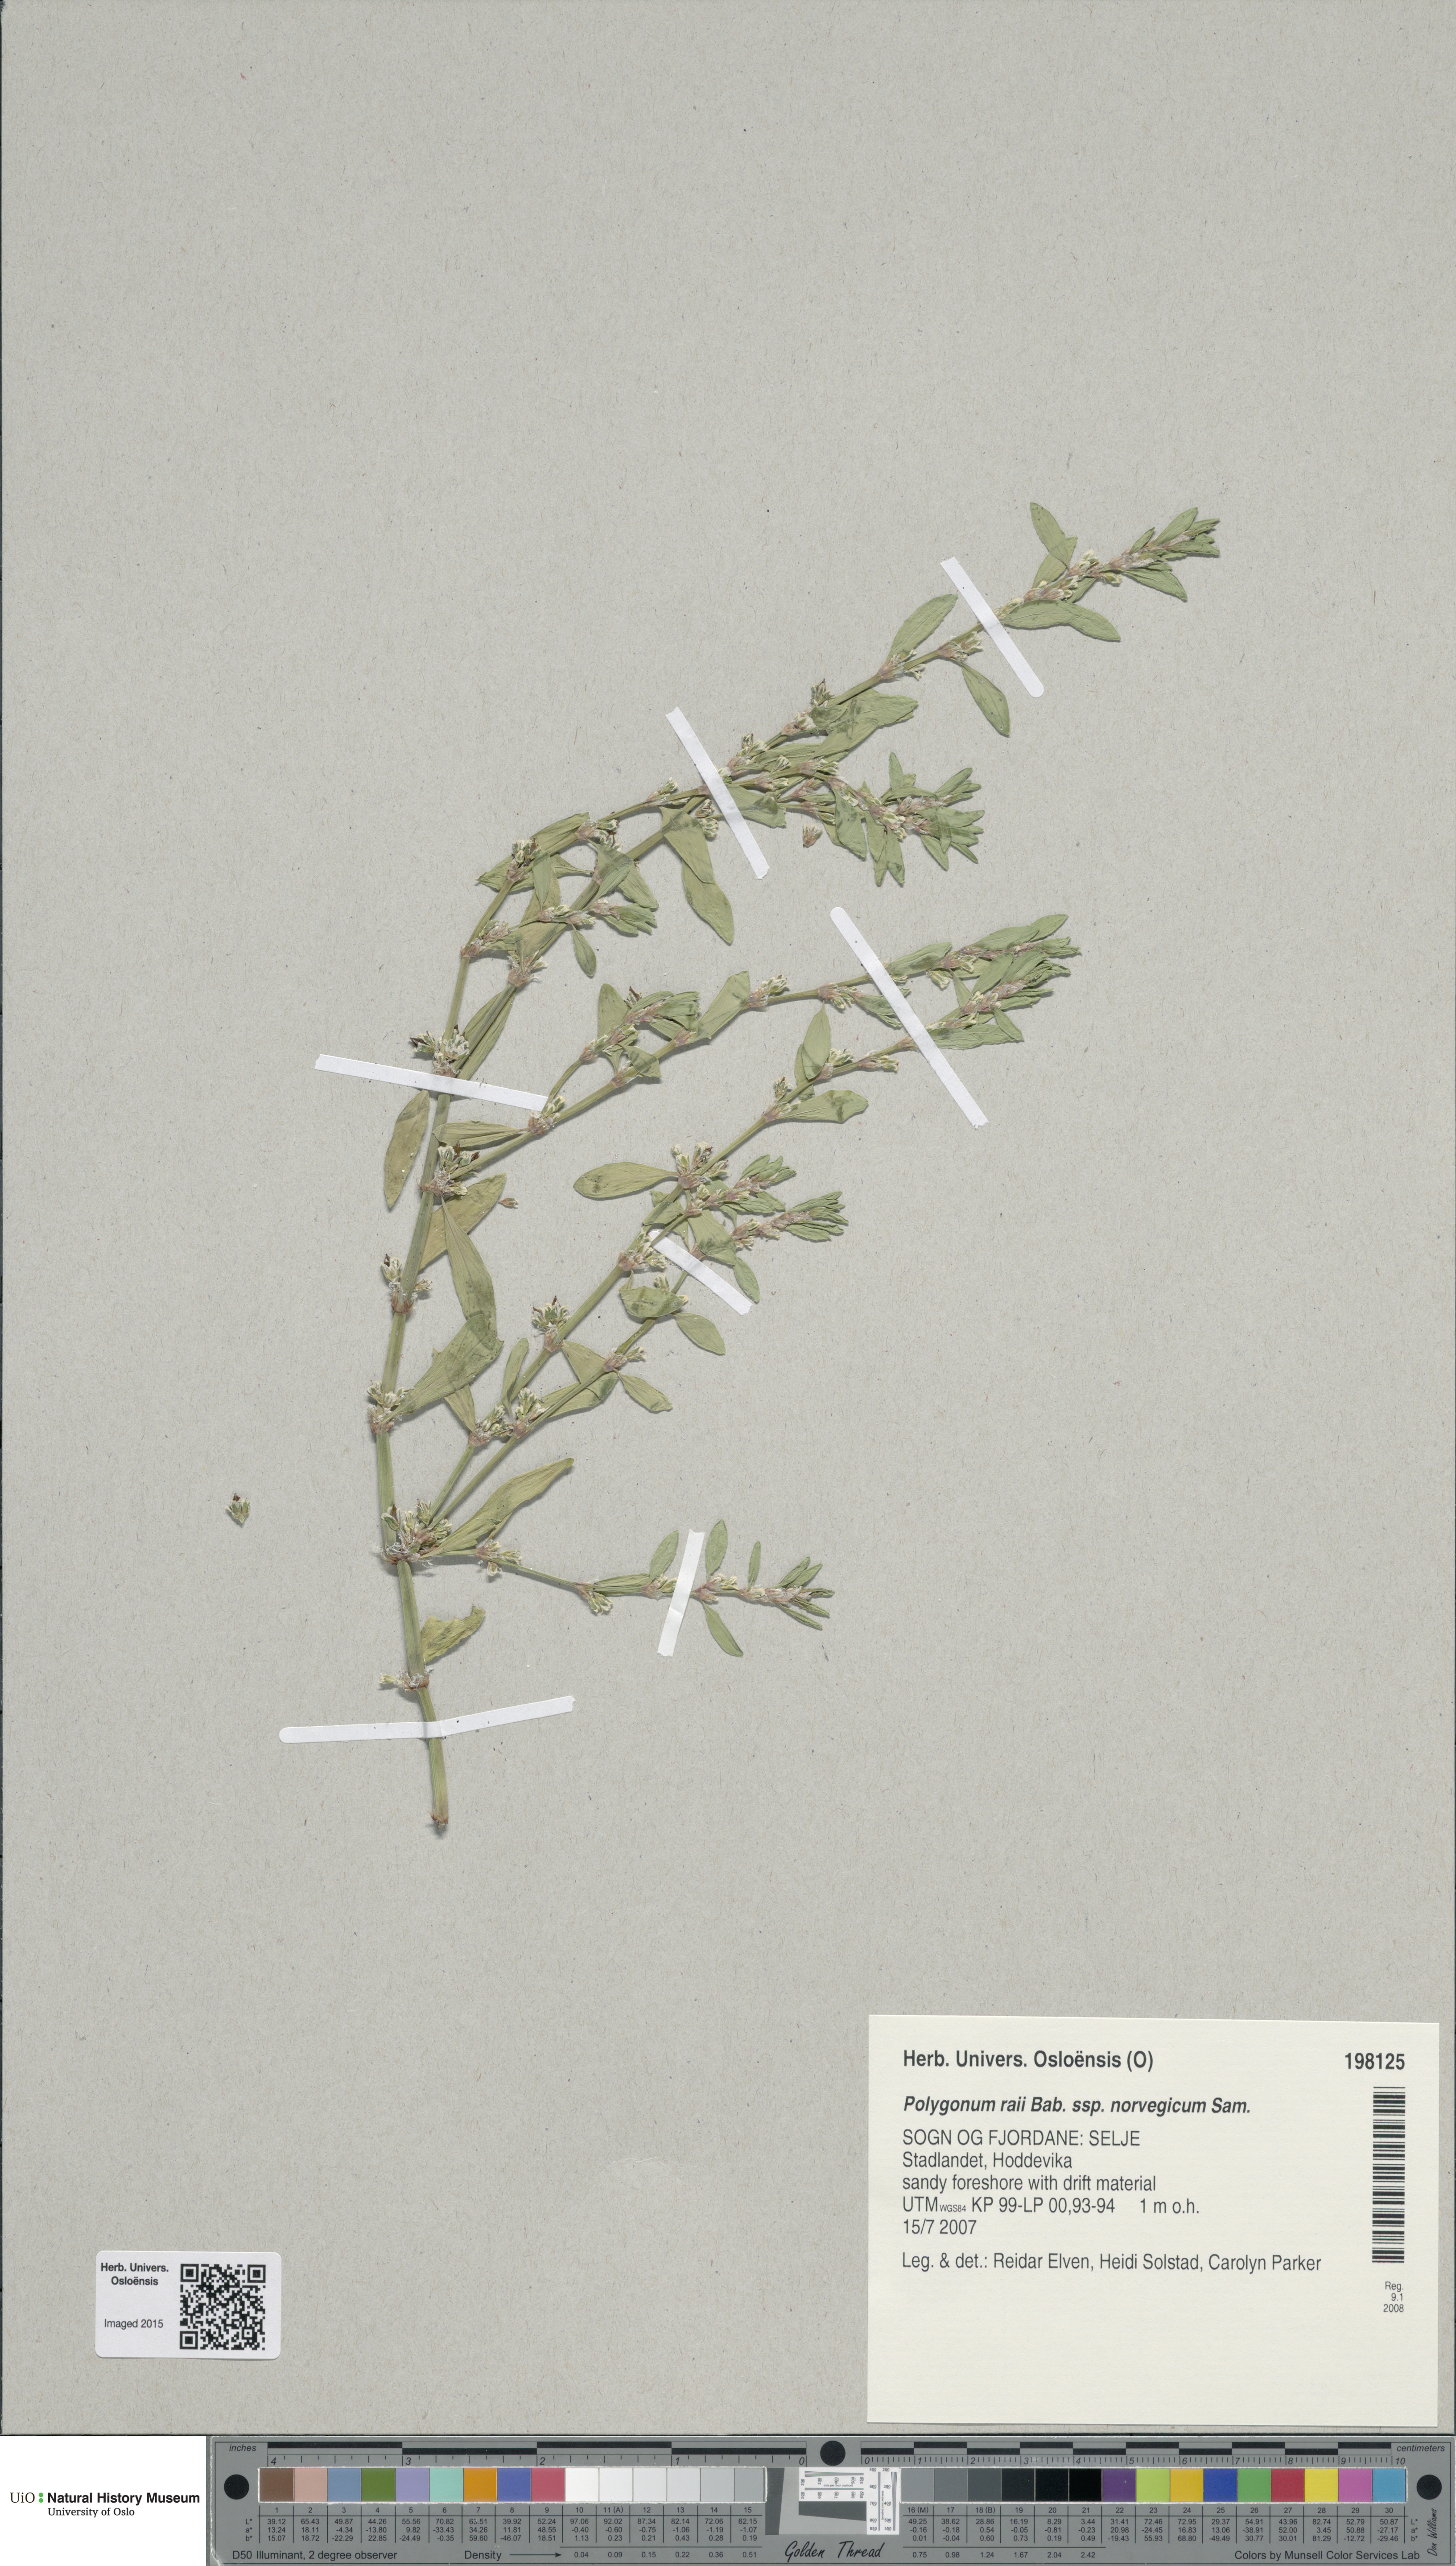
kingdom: Plantae
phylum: Tracheophyta
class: Magnoliopsida
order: Caryophyllales
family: Polygonaceae
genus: Polygonum
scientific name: Polygonum norvegicum
